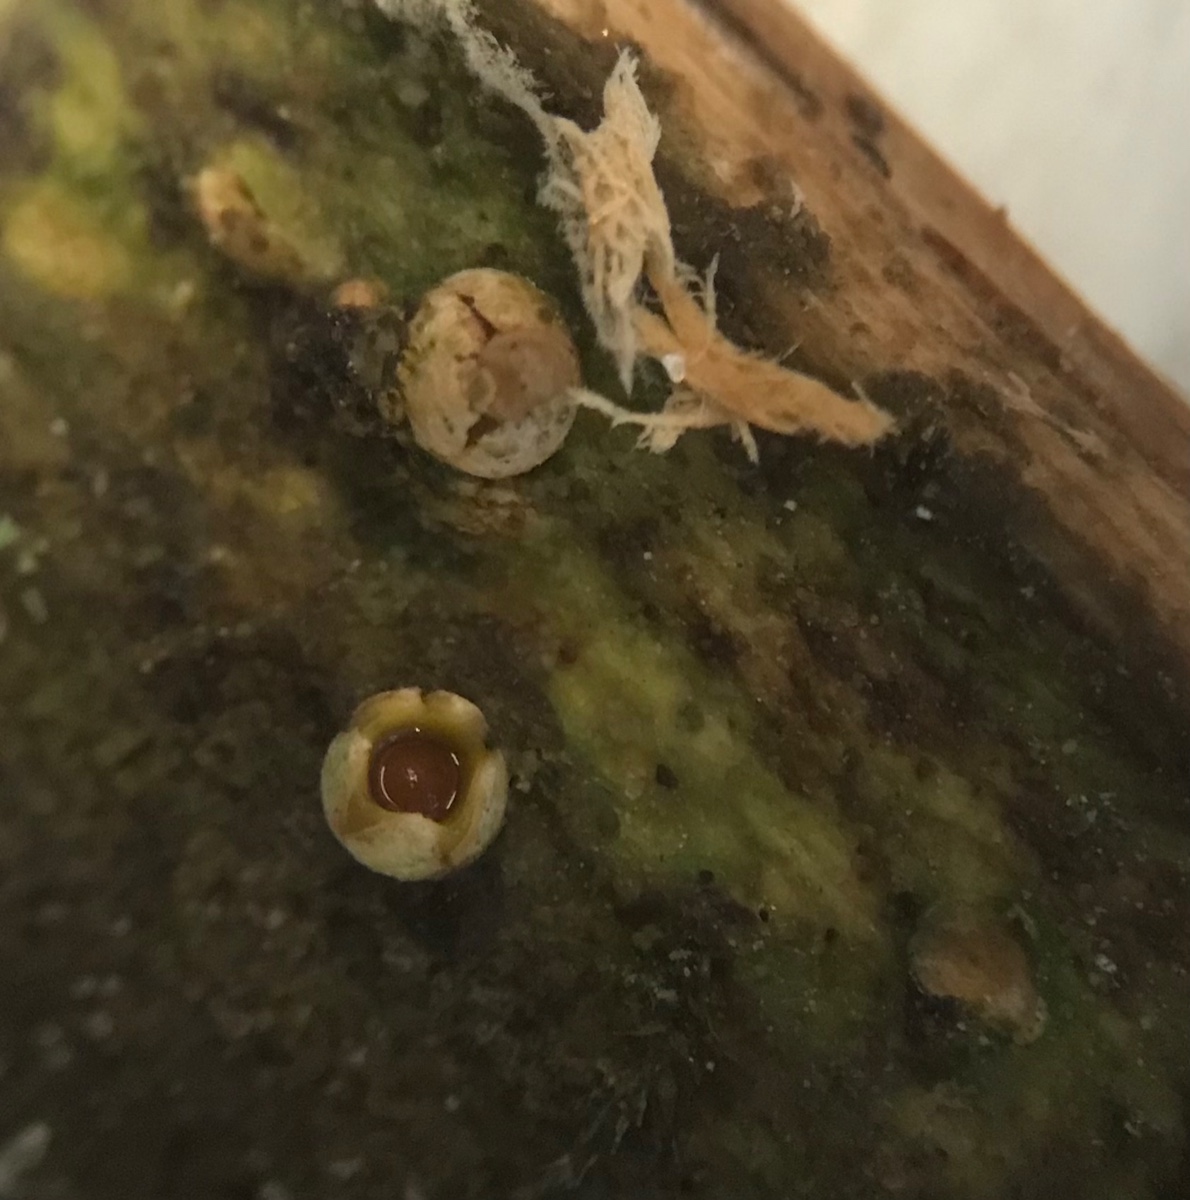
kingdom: Fungi
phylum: Basidiomycota
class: Agaricomycetes
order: Geastrales
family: Geastraceae
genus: Sphaerobolus
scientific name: Sphaerobolus stellatus
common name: bombekaster
